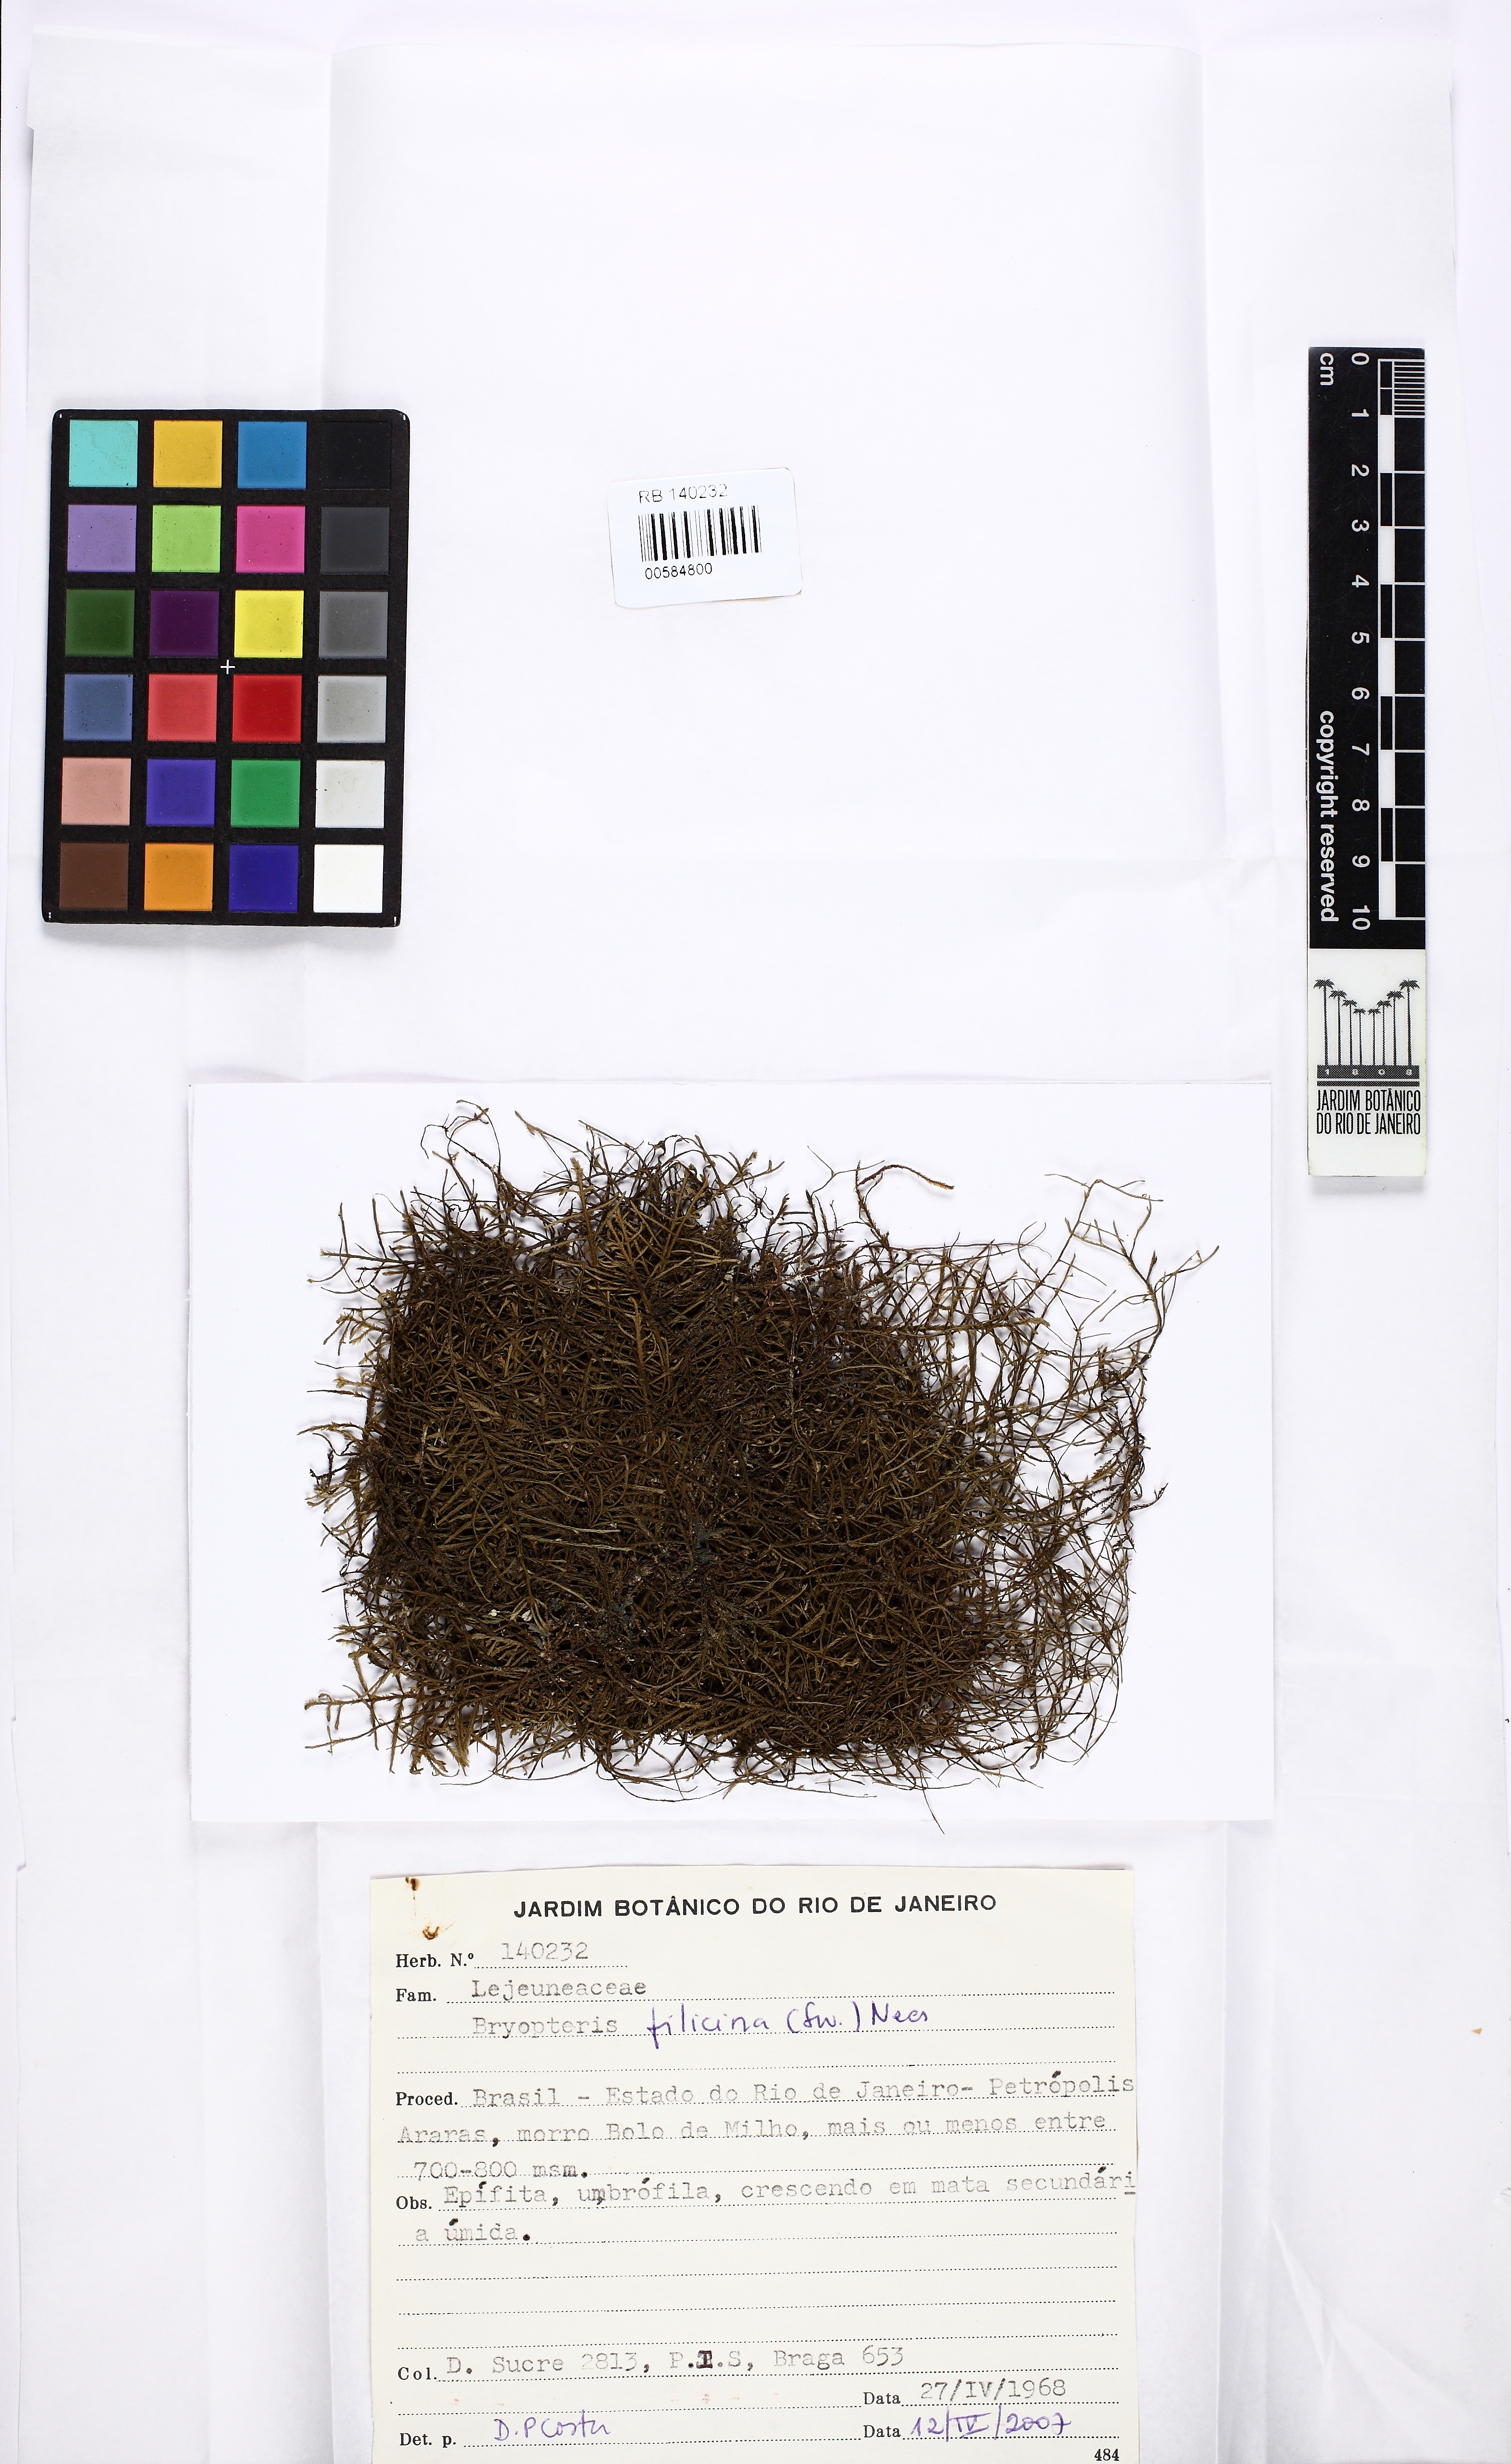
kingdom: Plantae
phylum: Marchantiophyta
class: Jungermanniopsida
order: Porellales
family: Lejeuneaceae
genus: Bryopteris
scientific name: Bryopteris filicina
